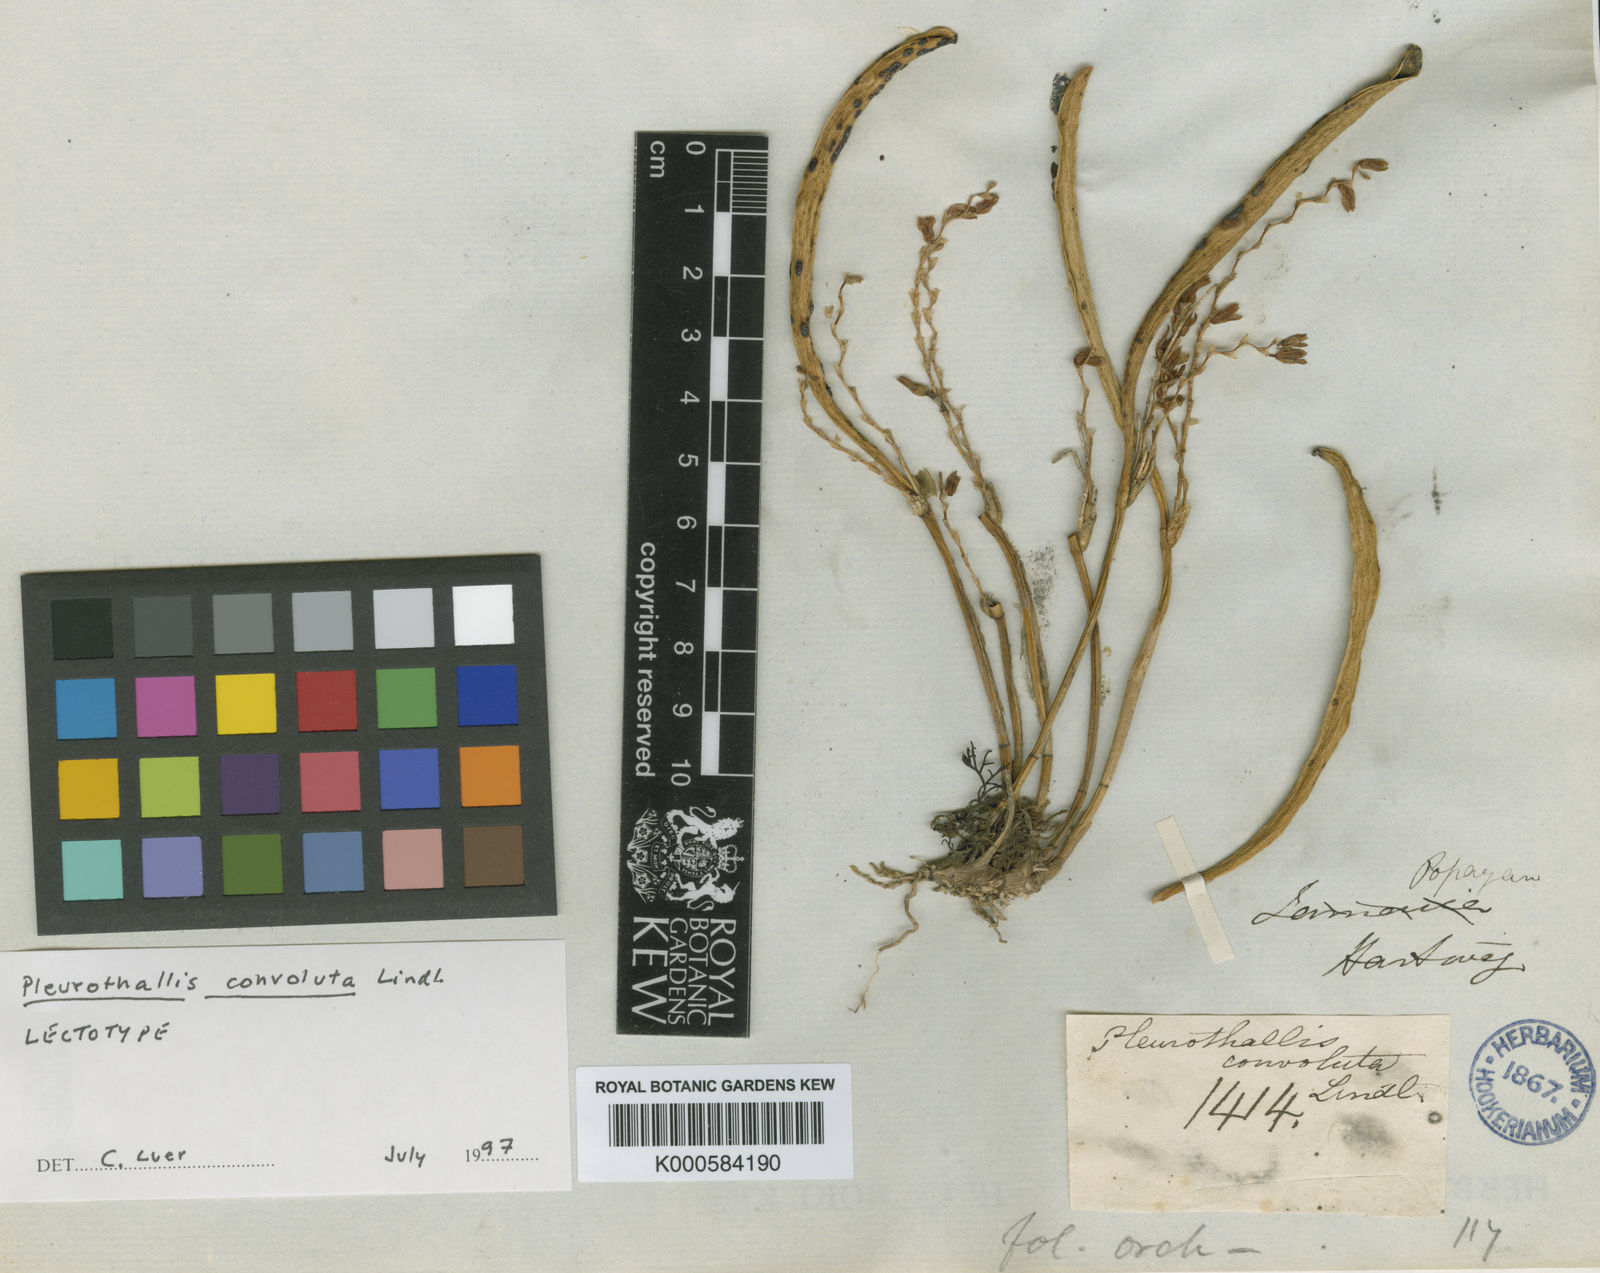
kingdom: Plantae
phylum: Tracheophyta
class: Liliopsida
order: Asparagales
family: Orchidaceae
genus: Pleurothallis
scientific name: Pleurothallis truncata
